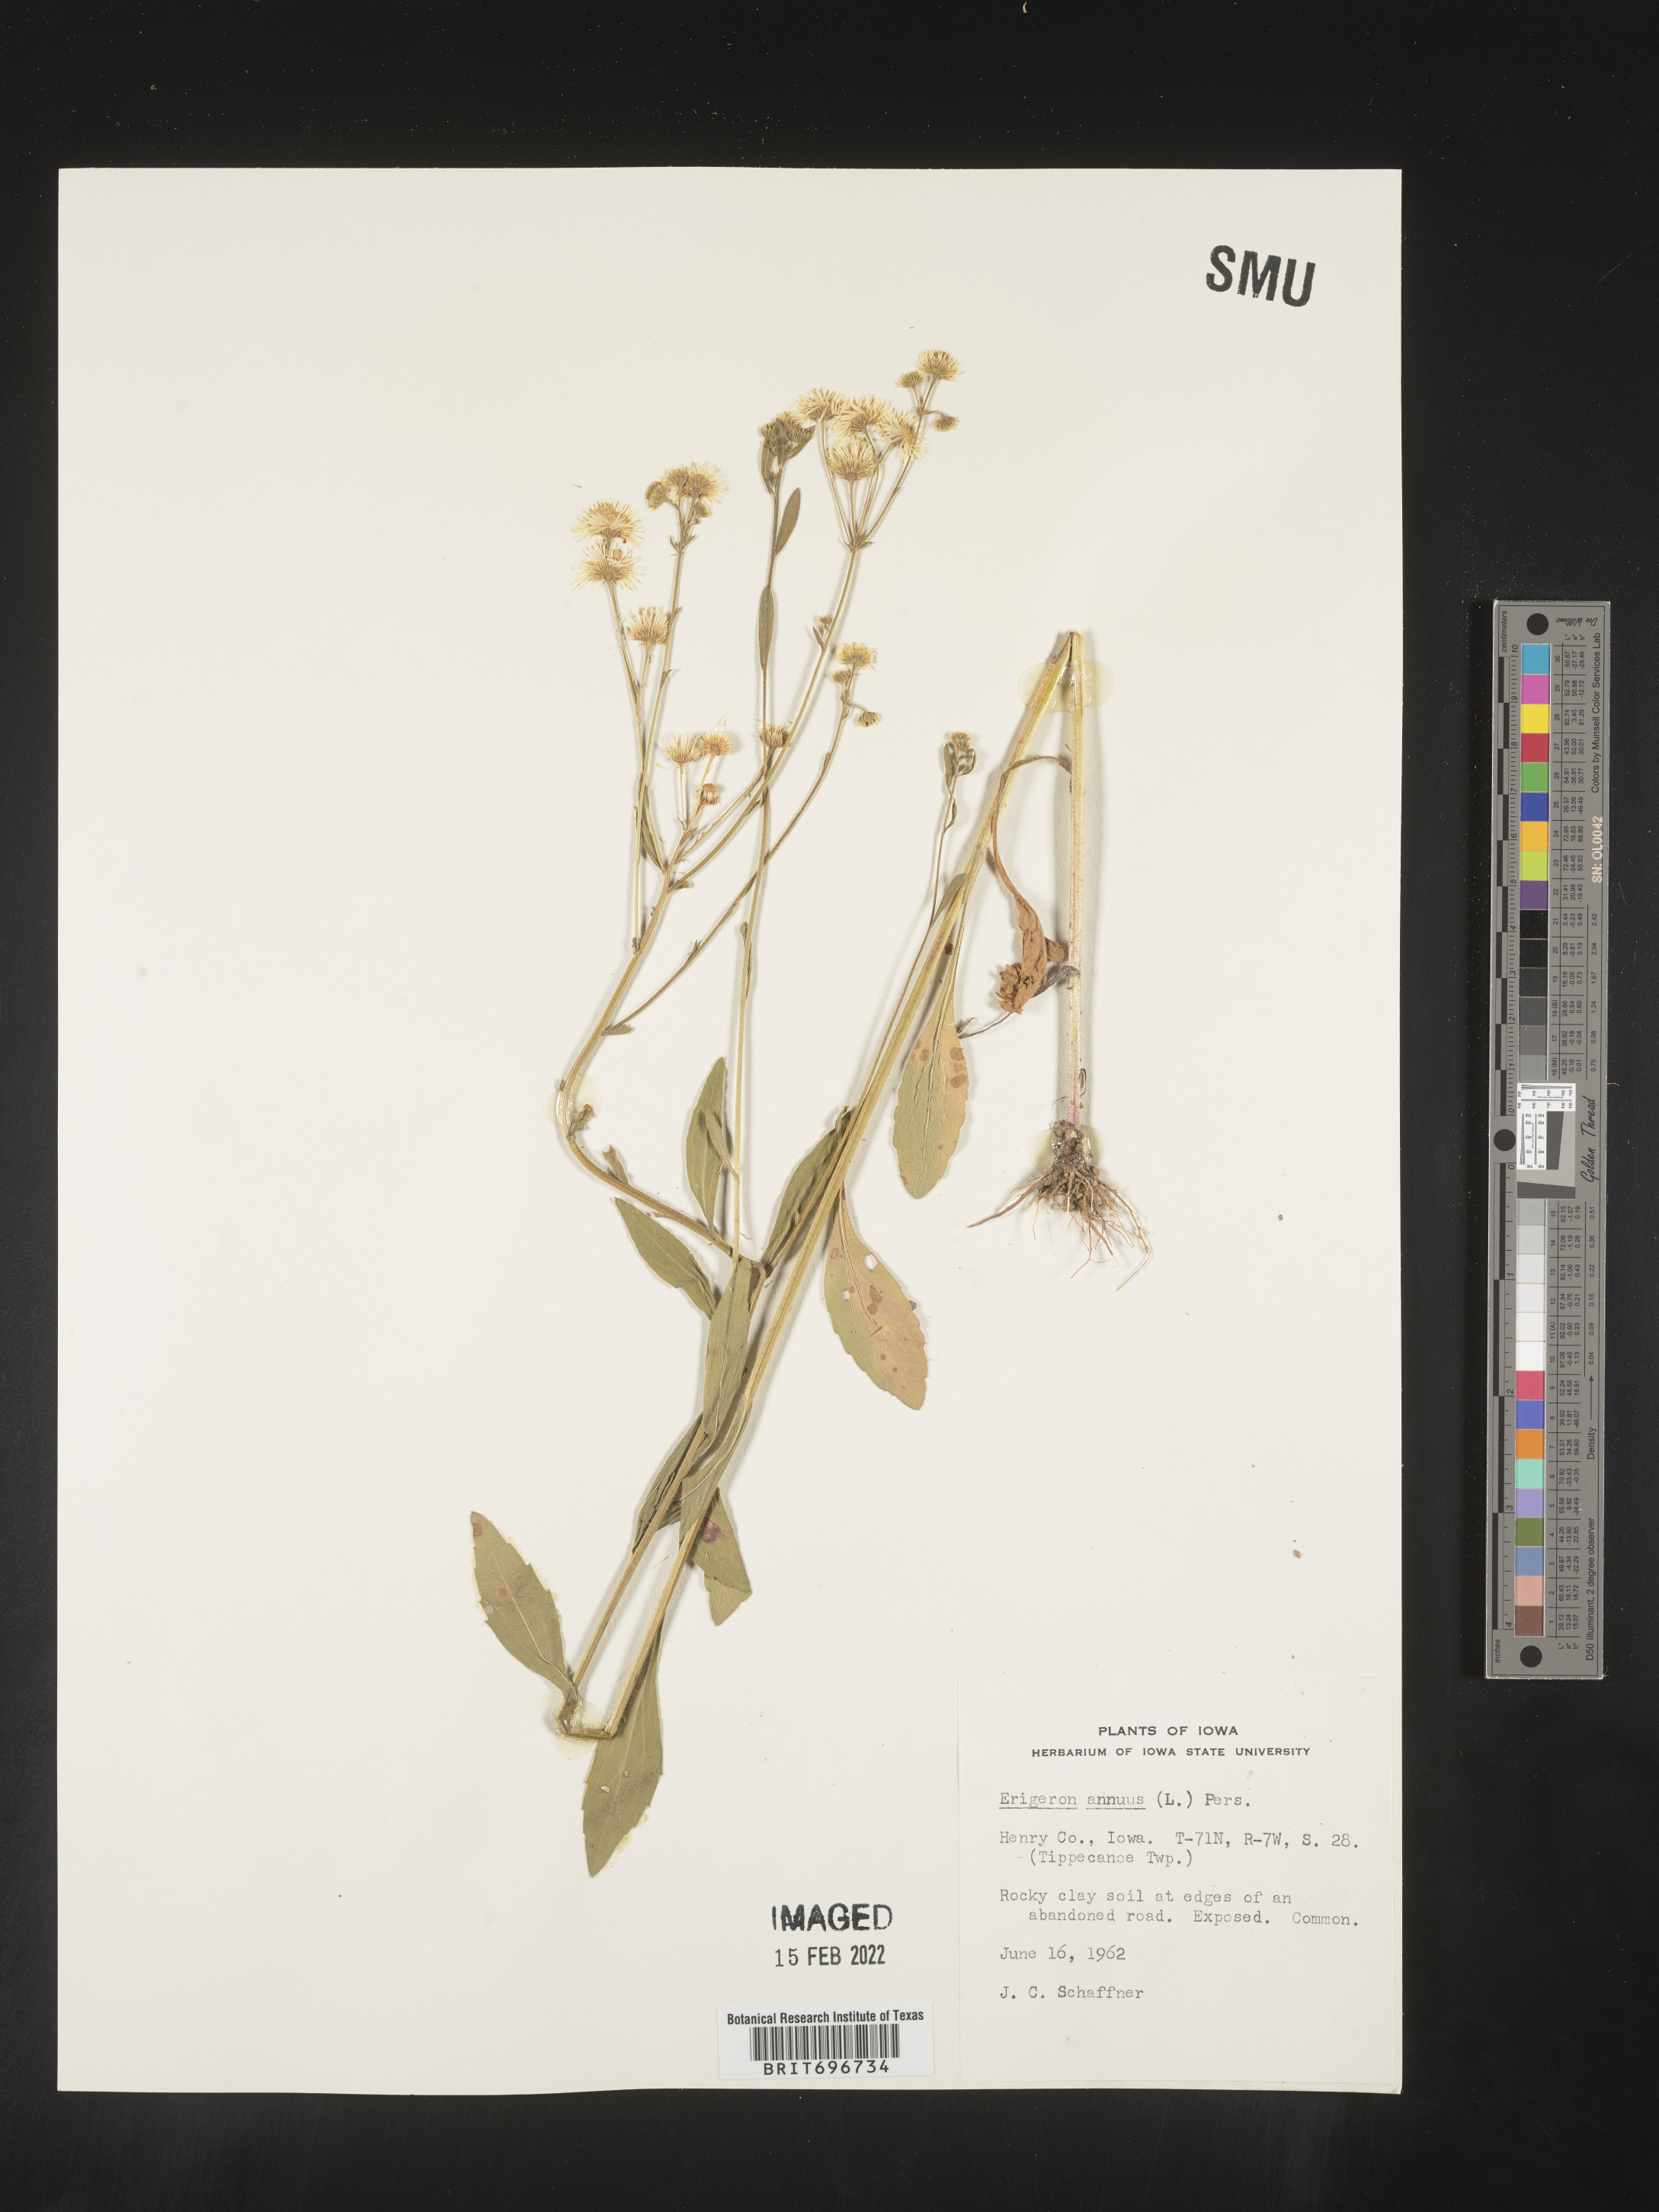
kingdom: Plantae
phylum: Tracheophyta
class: Magnoliopsida
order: Asterales
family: Asteraceae
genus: Erigeron
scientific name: Erigeron annuus
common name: Tall fleabane
